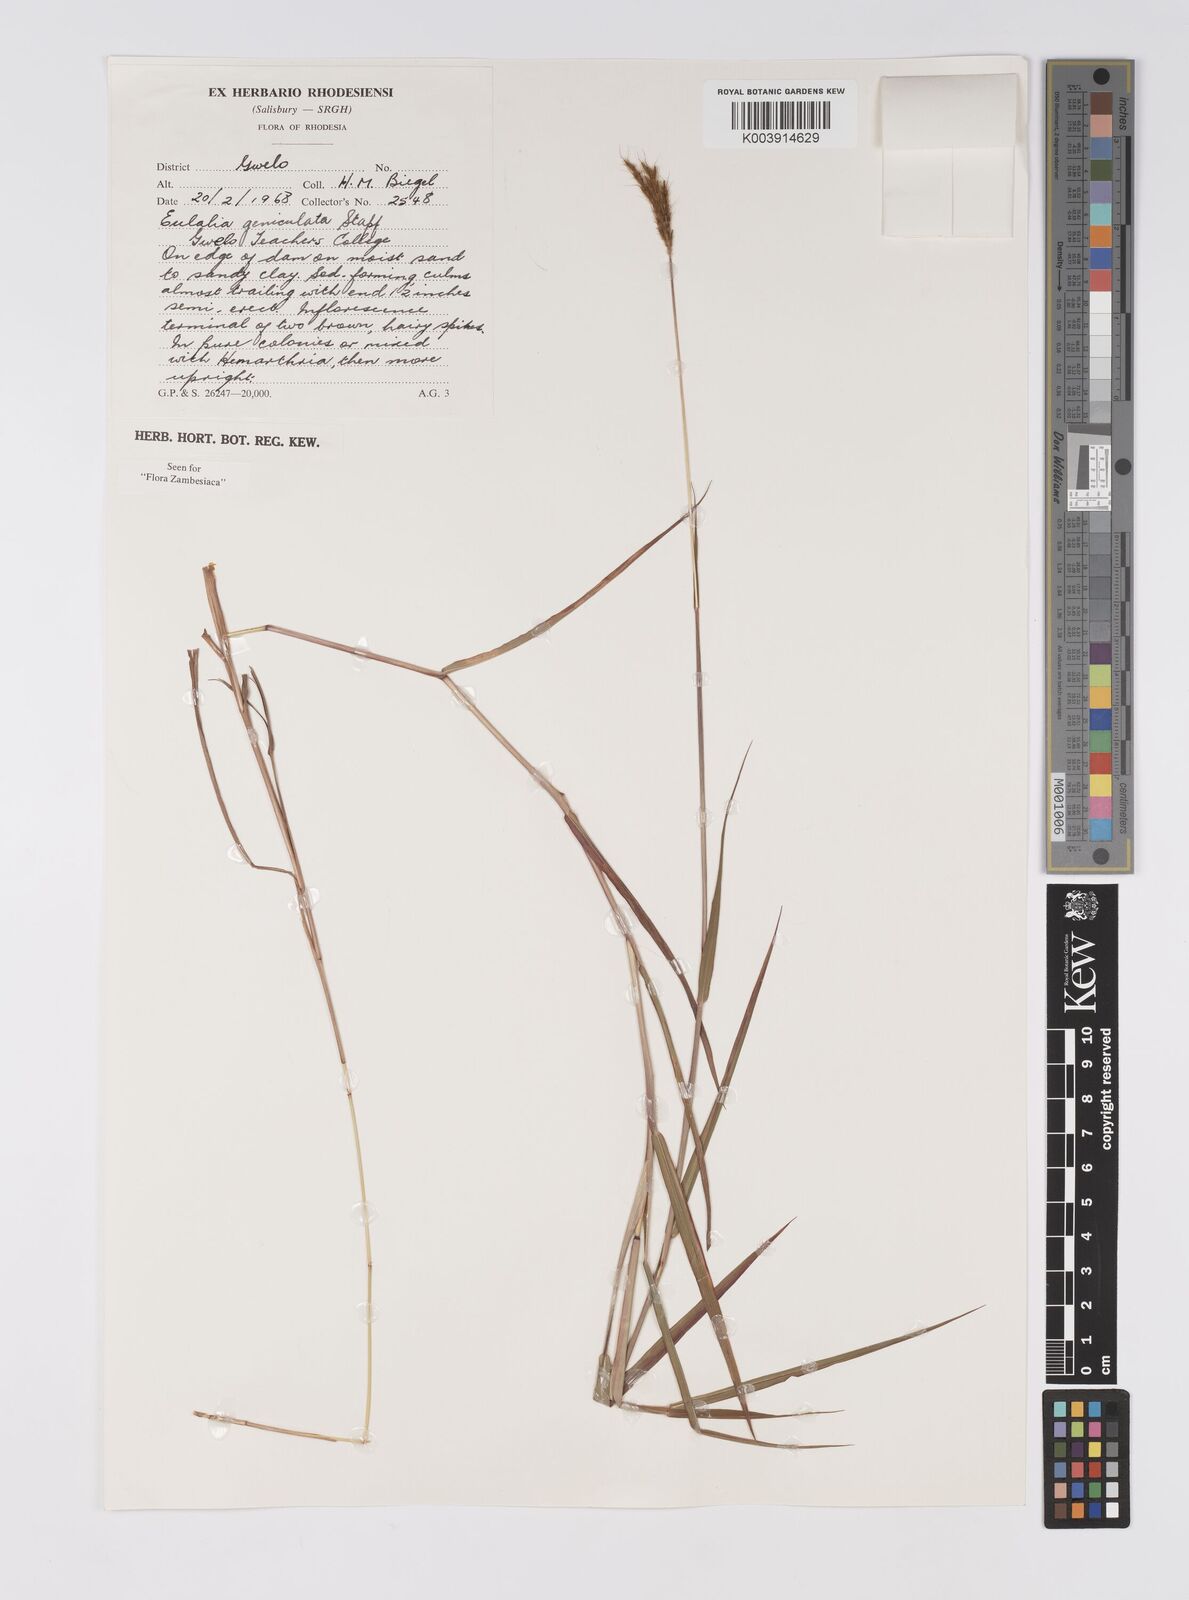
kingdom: Plantae
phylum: Tracheophyta
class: Liliopsida
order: Poales
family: Poaceae
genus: Eulalia
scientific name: Eulalia aurea
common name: Silky browntop
